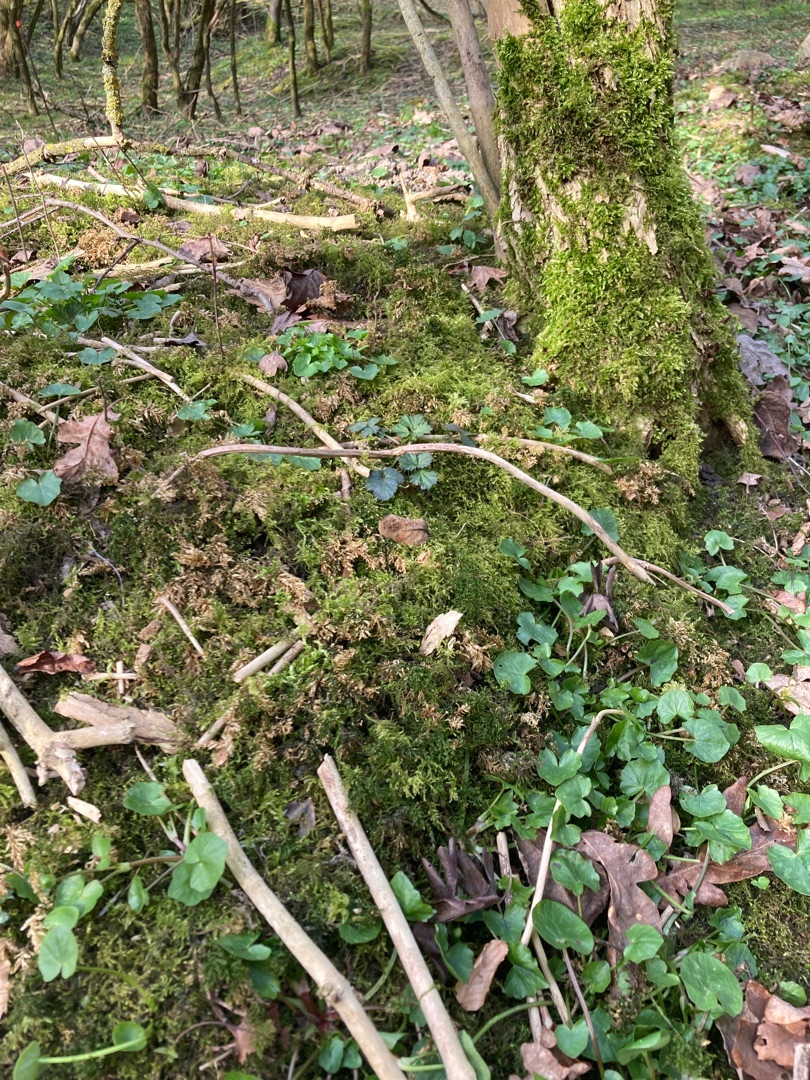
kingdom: Plantae
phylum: Bryophyta
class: Bryopsida
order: Bryales
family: Mniaceae
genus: Plagiomnium
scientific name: Plagiomnium undulatum
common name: Bølget krybstjerne
